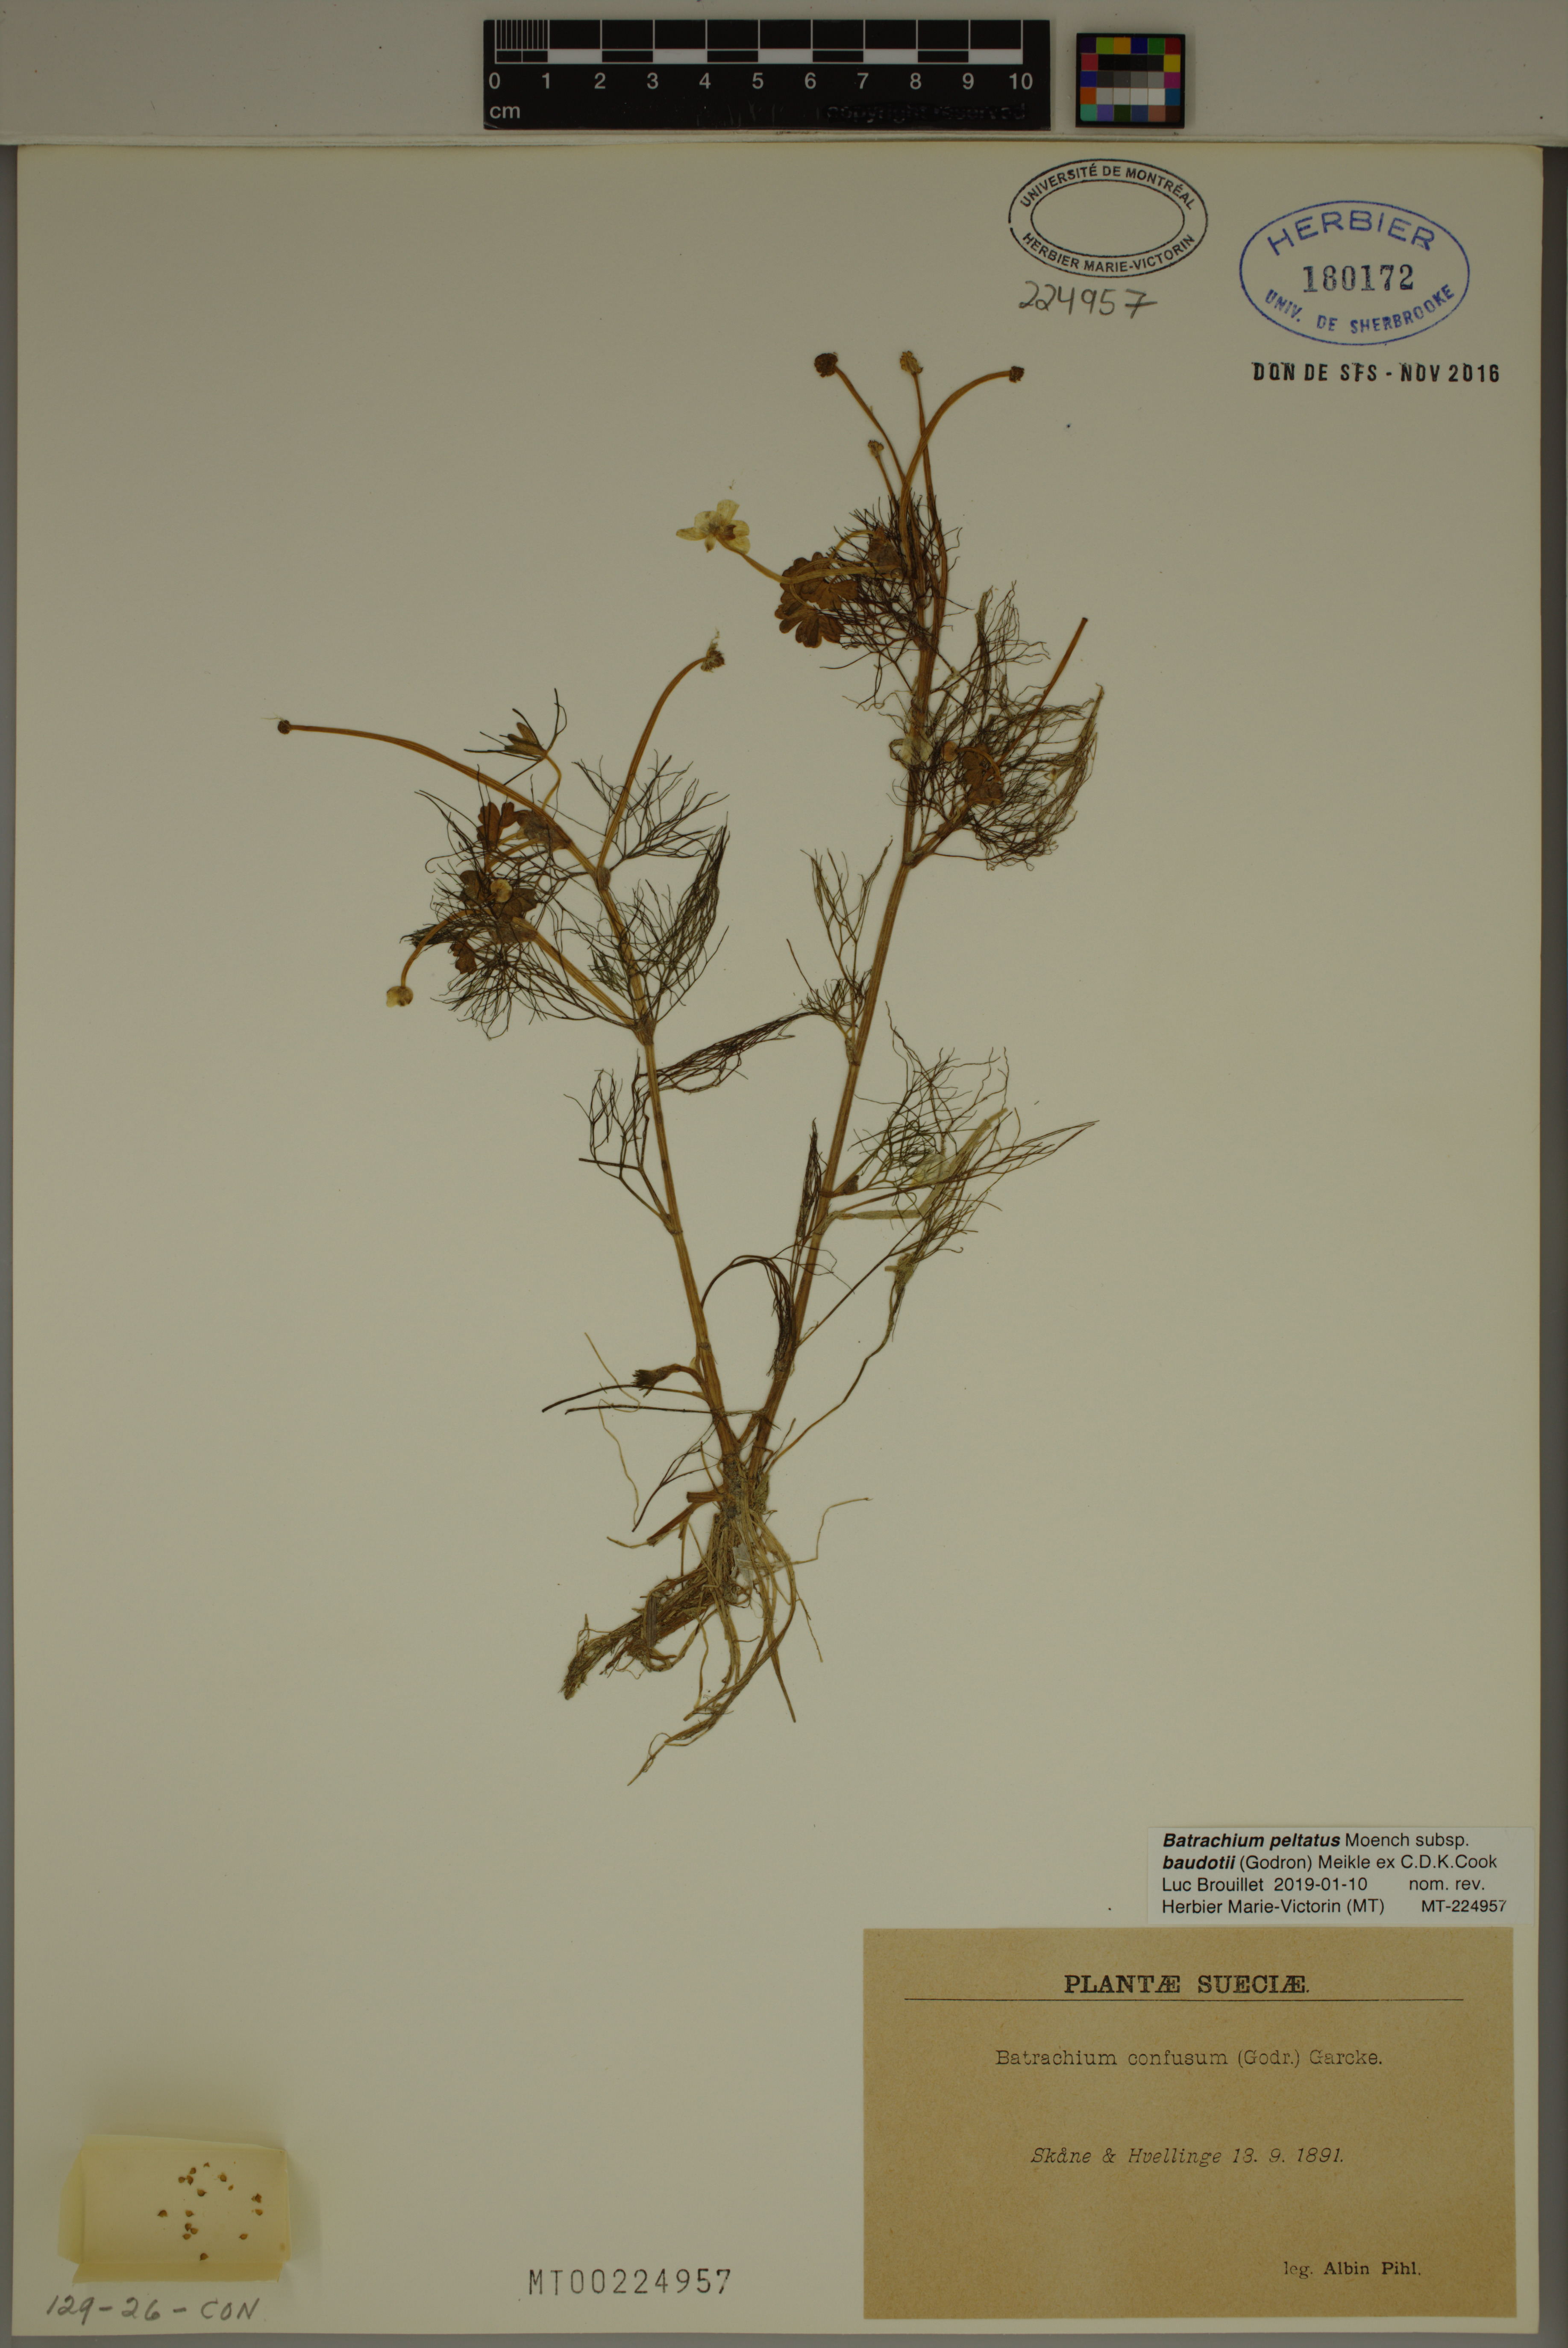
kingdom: Plantae
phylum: Tracheophyta
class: Magnoliopsida
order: Ranunculales
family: Ranunculaceae
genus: Ranunculus
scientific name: Ranunculus peltatus
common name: Pond water-crowfoot
